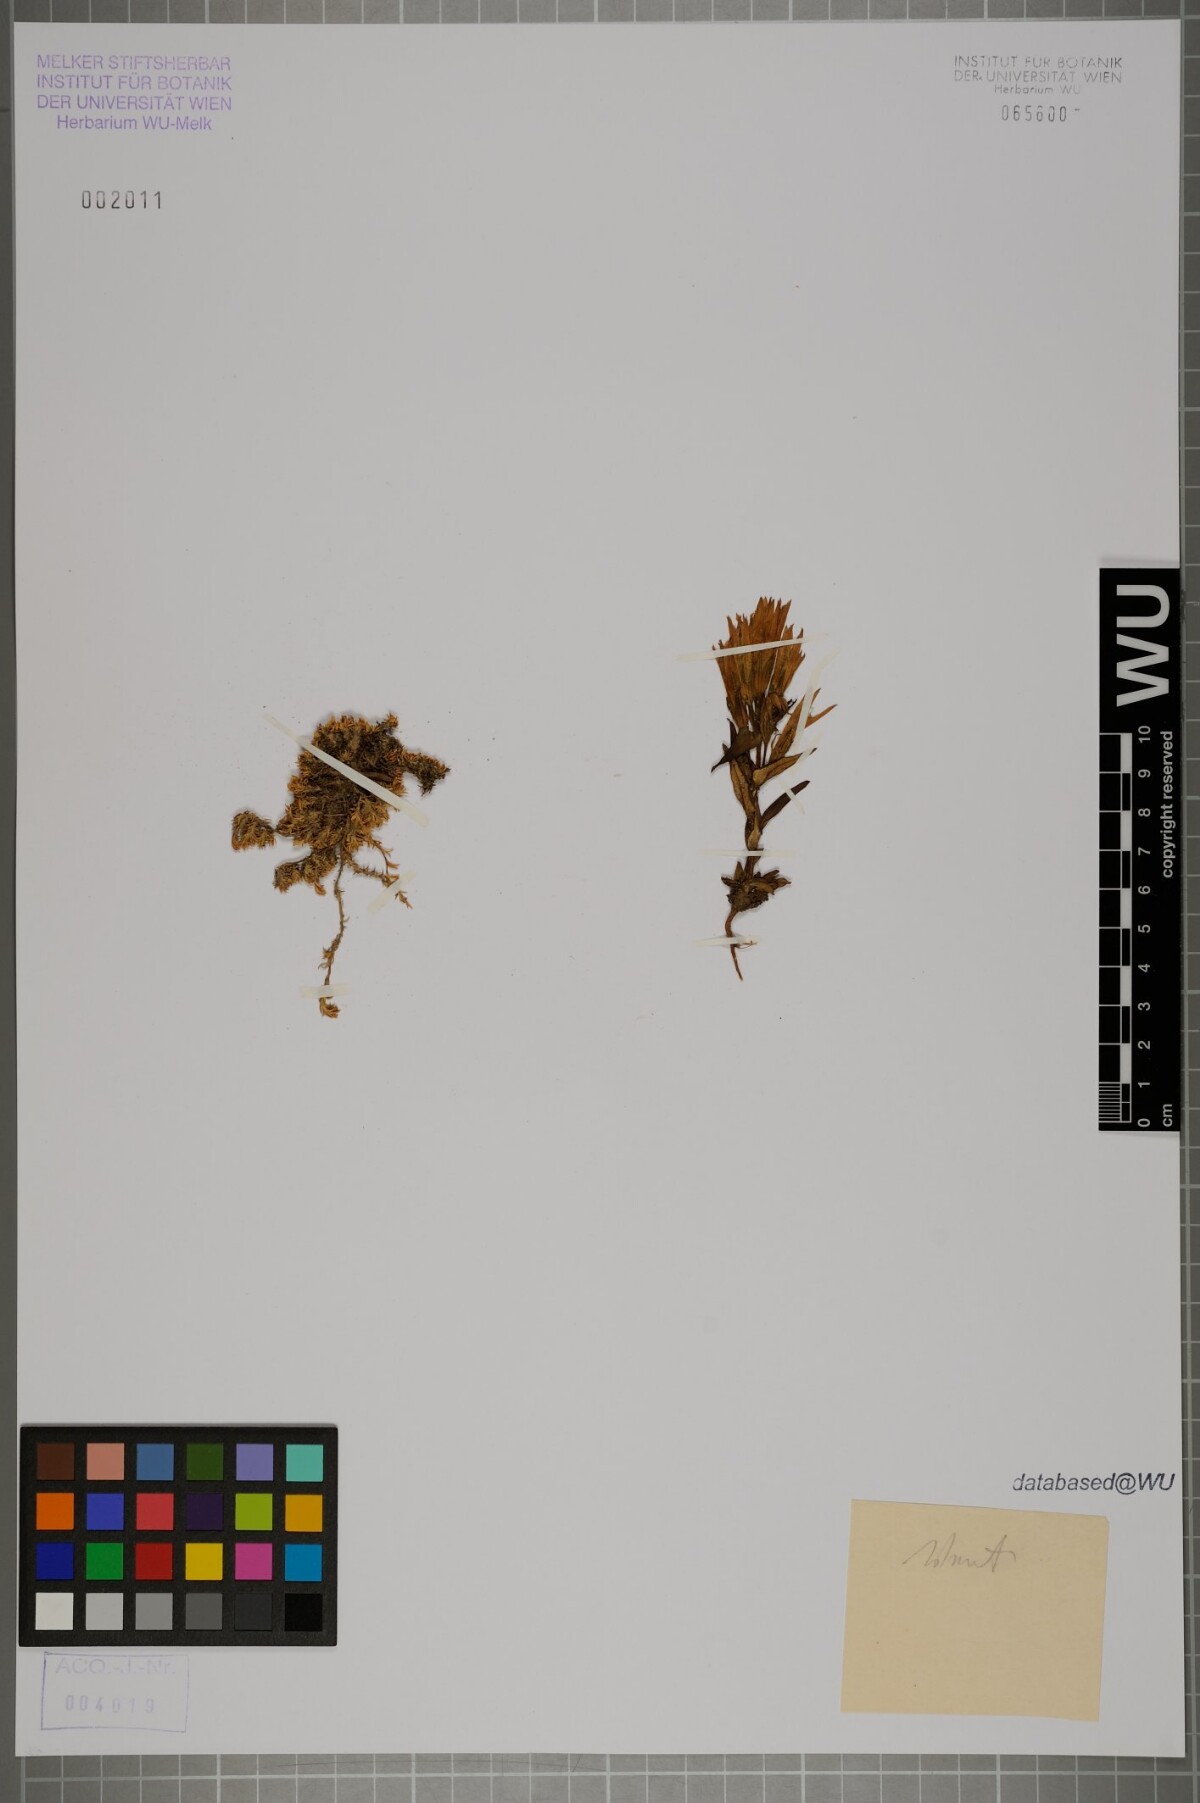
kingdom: Plantae
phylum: Tracheophyta
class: Magnoliopsida
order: Gentianales
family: Gentianaceae
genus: Gentianella
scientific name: Gentianella
